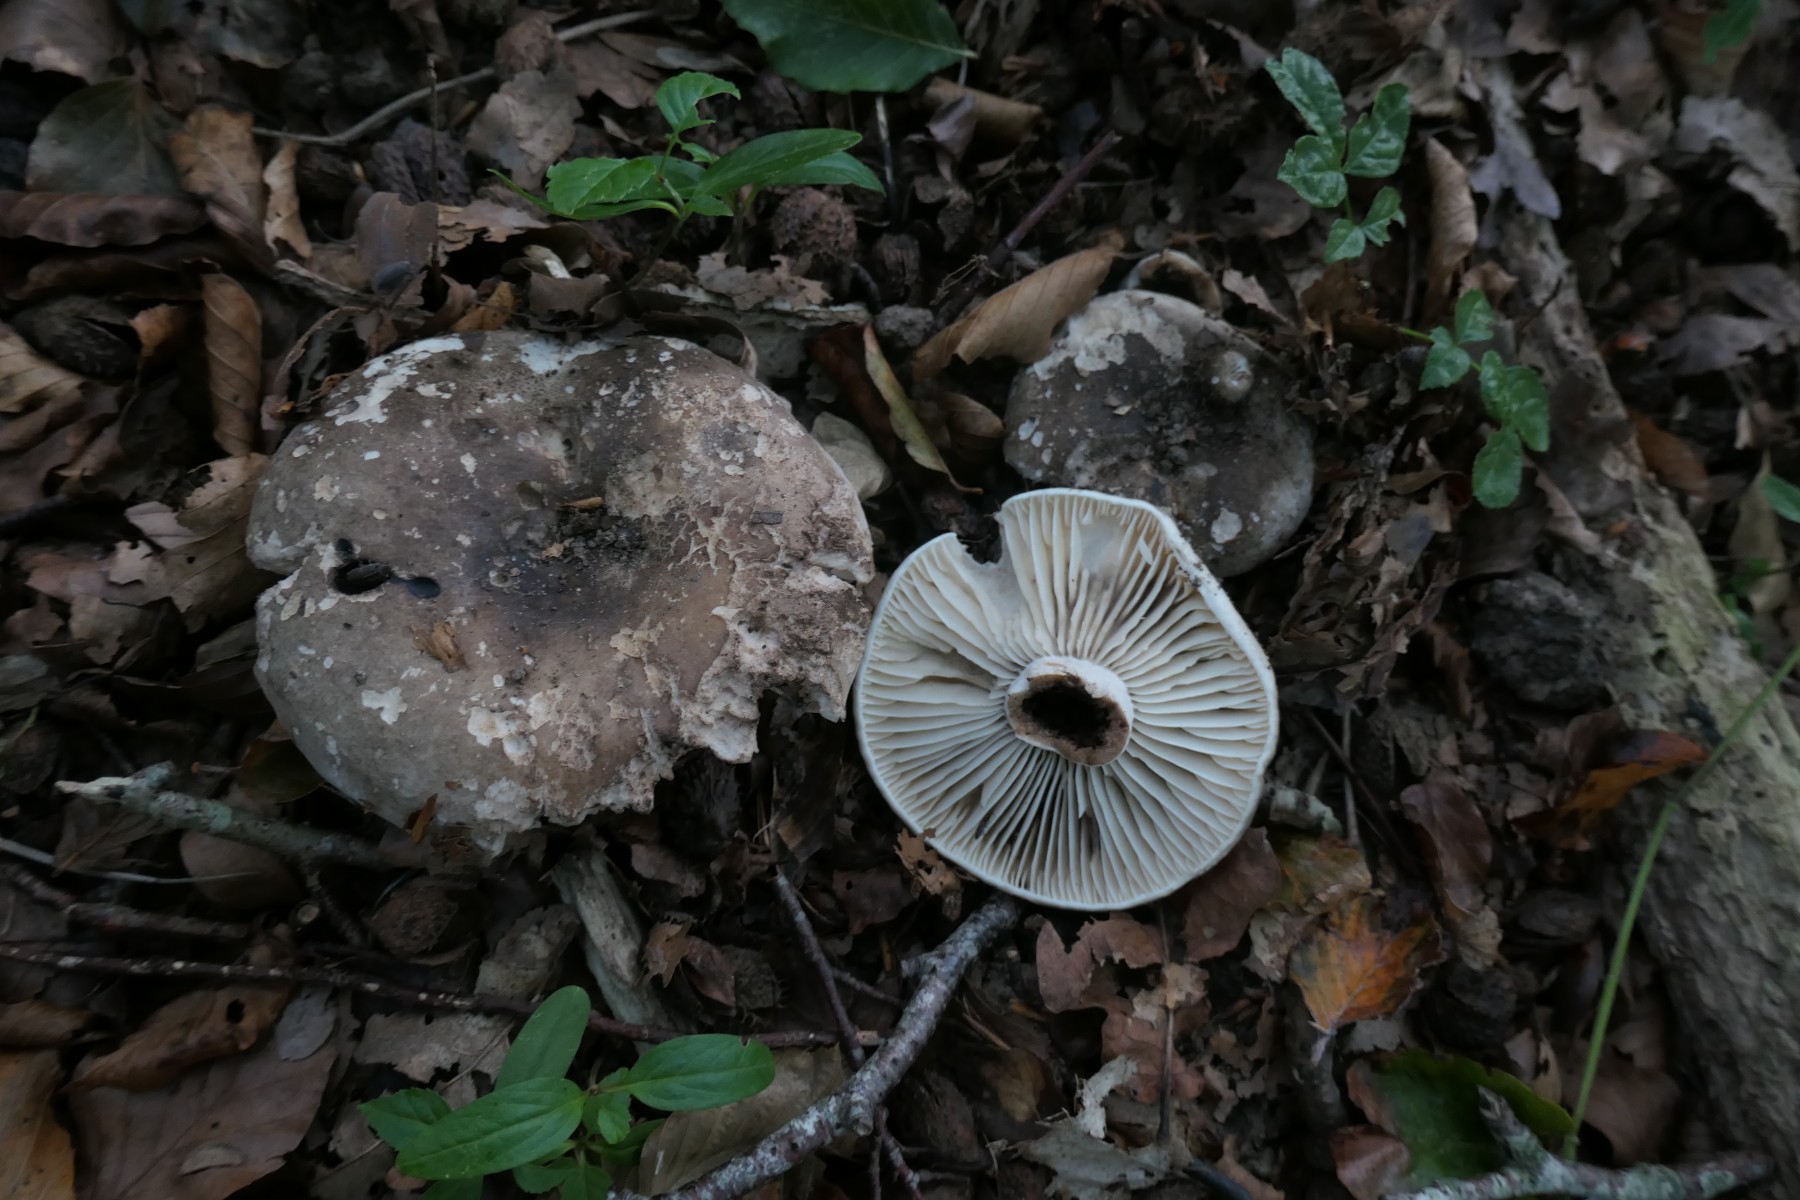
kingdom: Fungi
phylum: Basidiomycota
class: Agaricomycetes
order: Russulales
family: Russulaceae
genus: Russula
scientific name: Russula adusta
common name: sværtende skørhat
